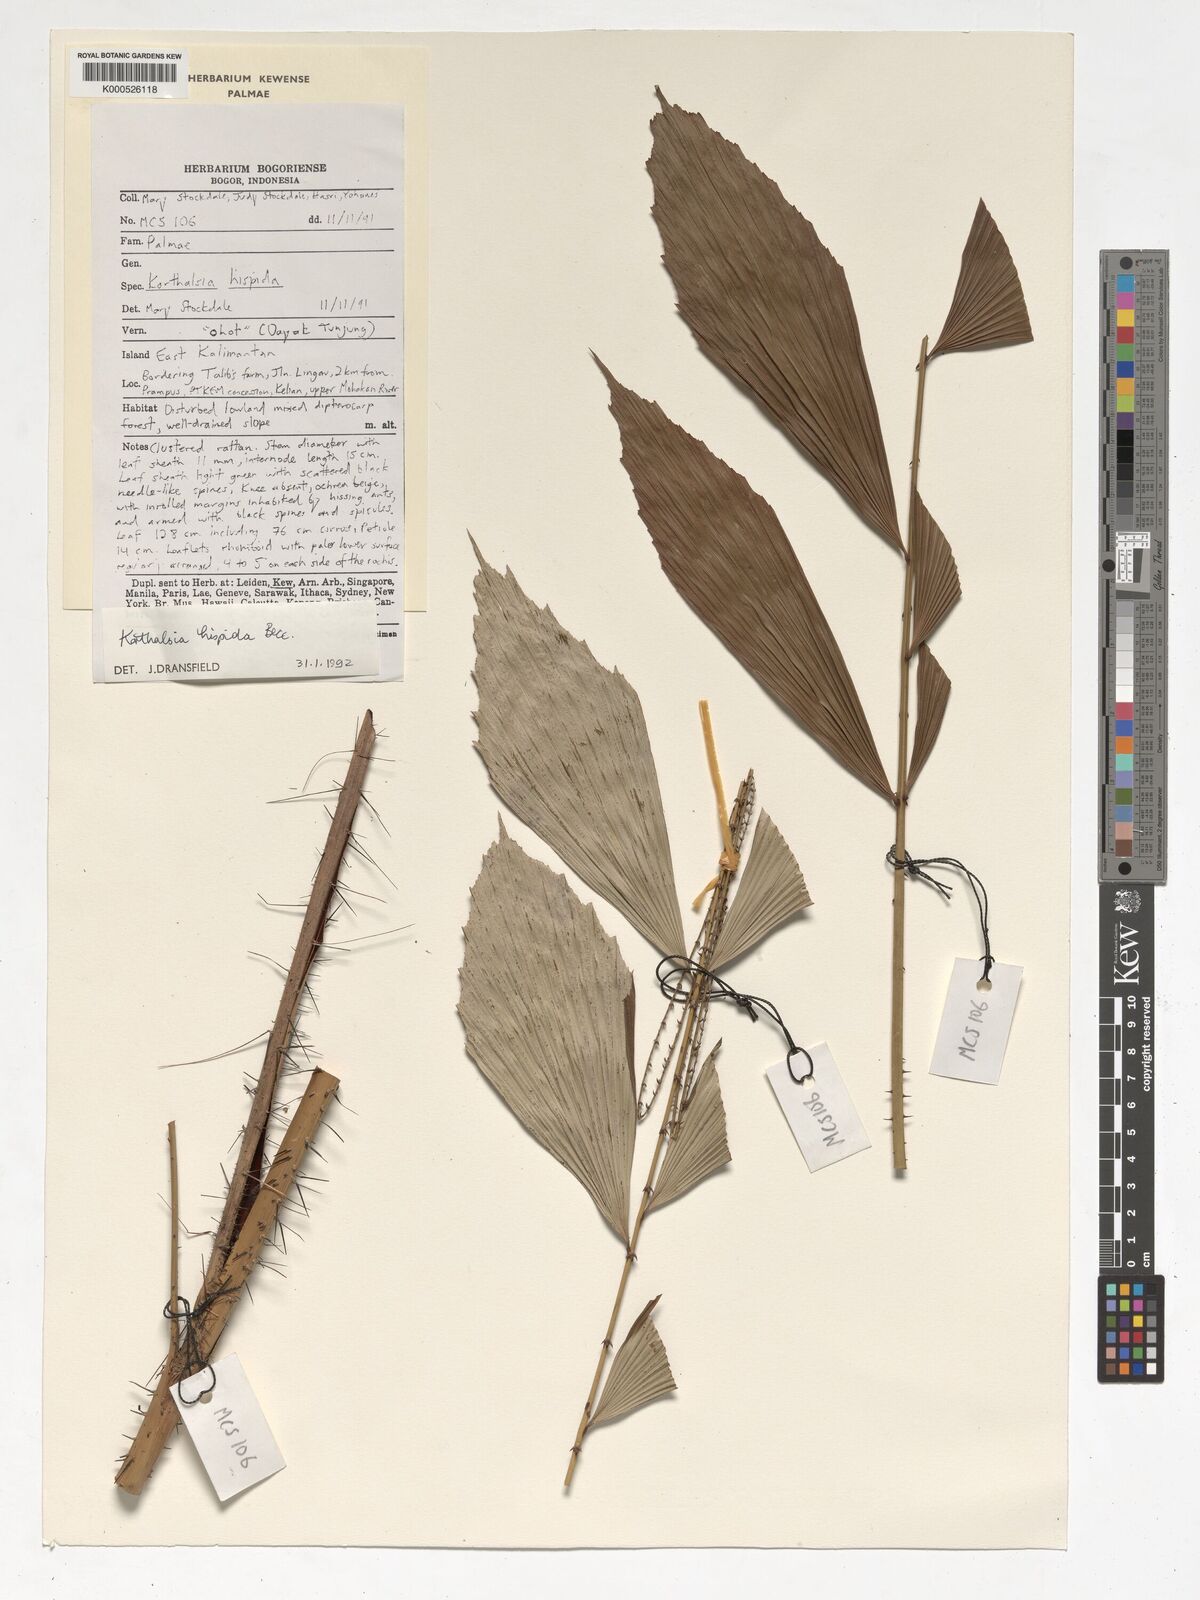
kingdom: Plantae
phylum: Tracheophyta
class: Liliopsida
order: Arecales
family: Arecaceae
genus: Korthalsia
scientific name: Korthalsia hispida
